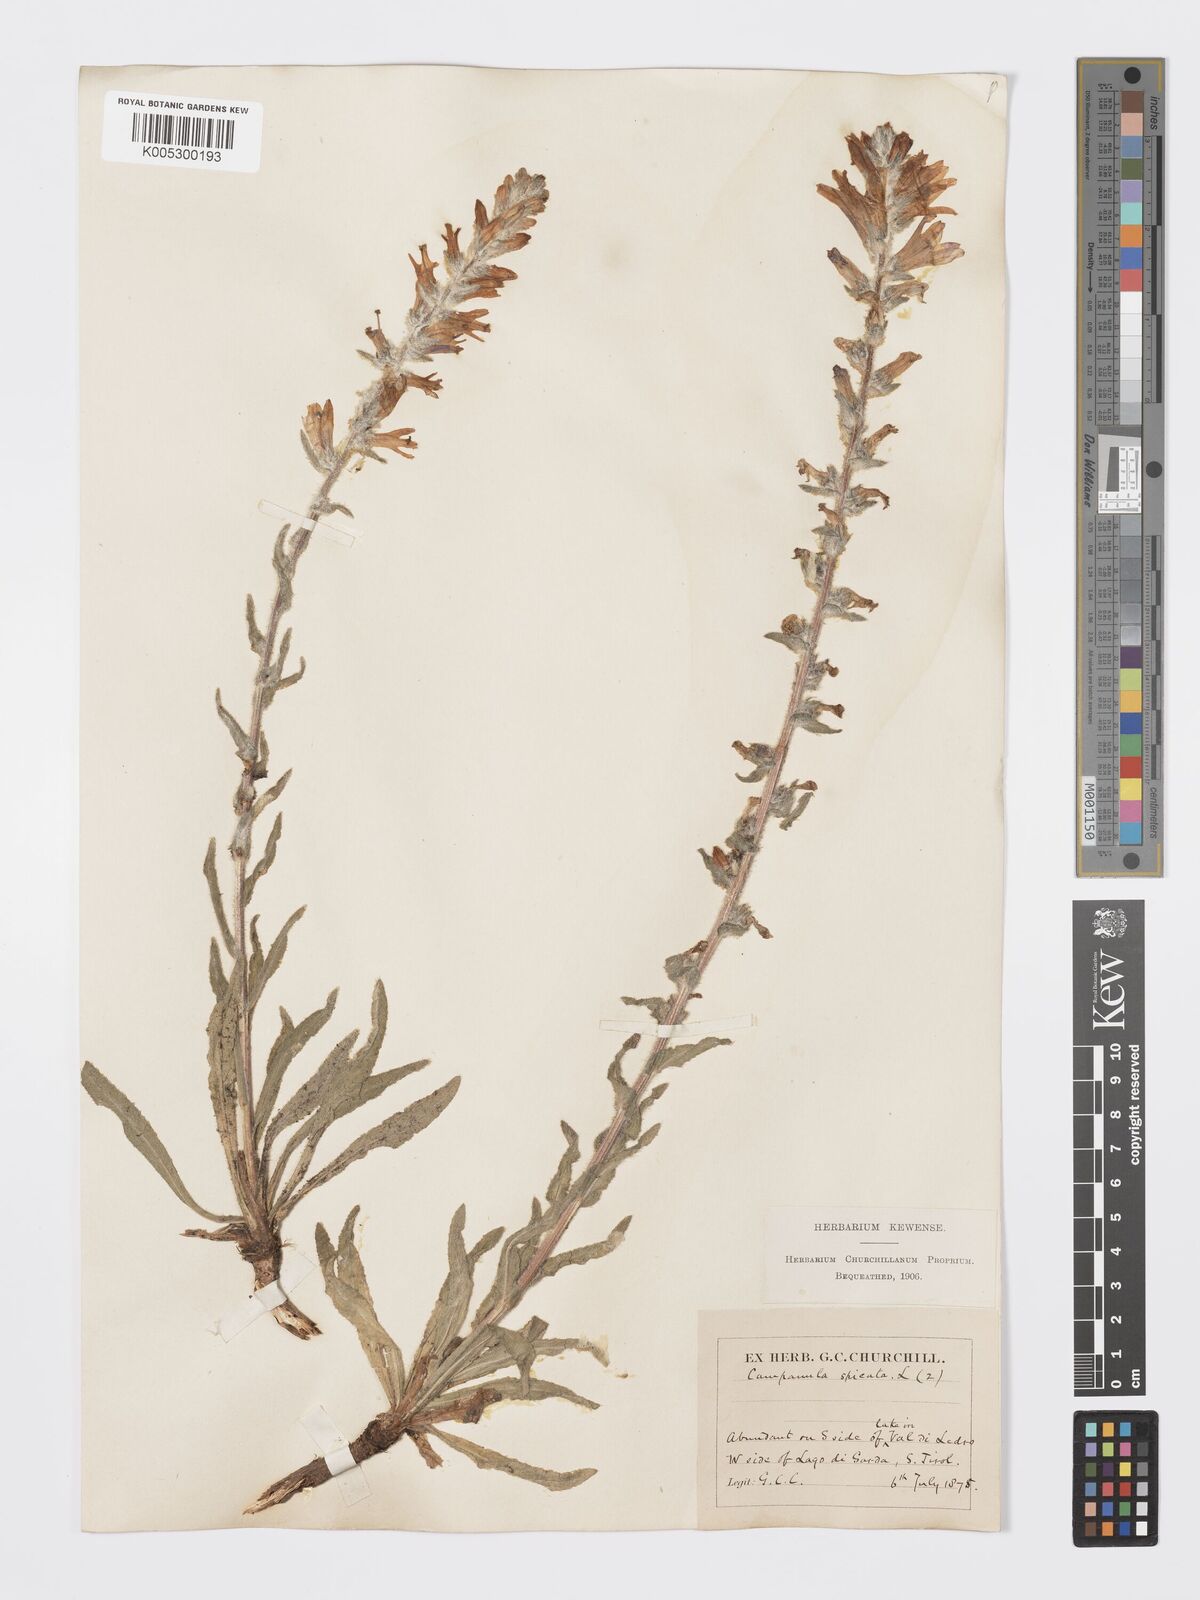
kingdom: Plantae
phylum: Tracheophyta
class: Magnoliopsida
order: Asterales
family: Campanulaceae
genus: Campanula
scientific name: Campanula spicata
